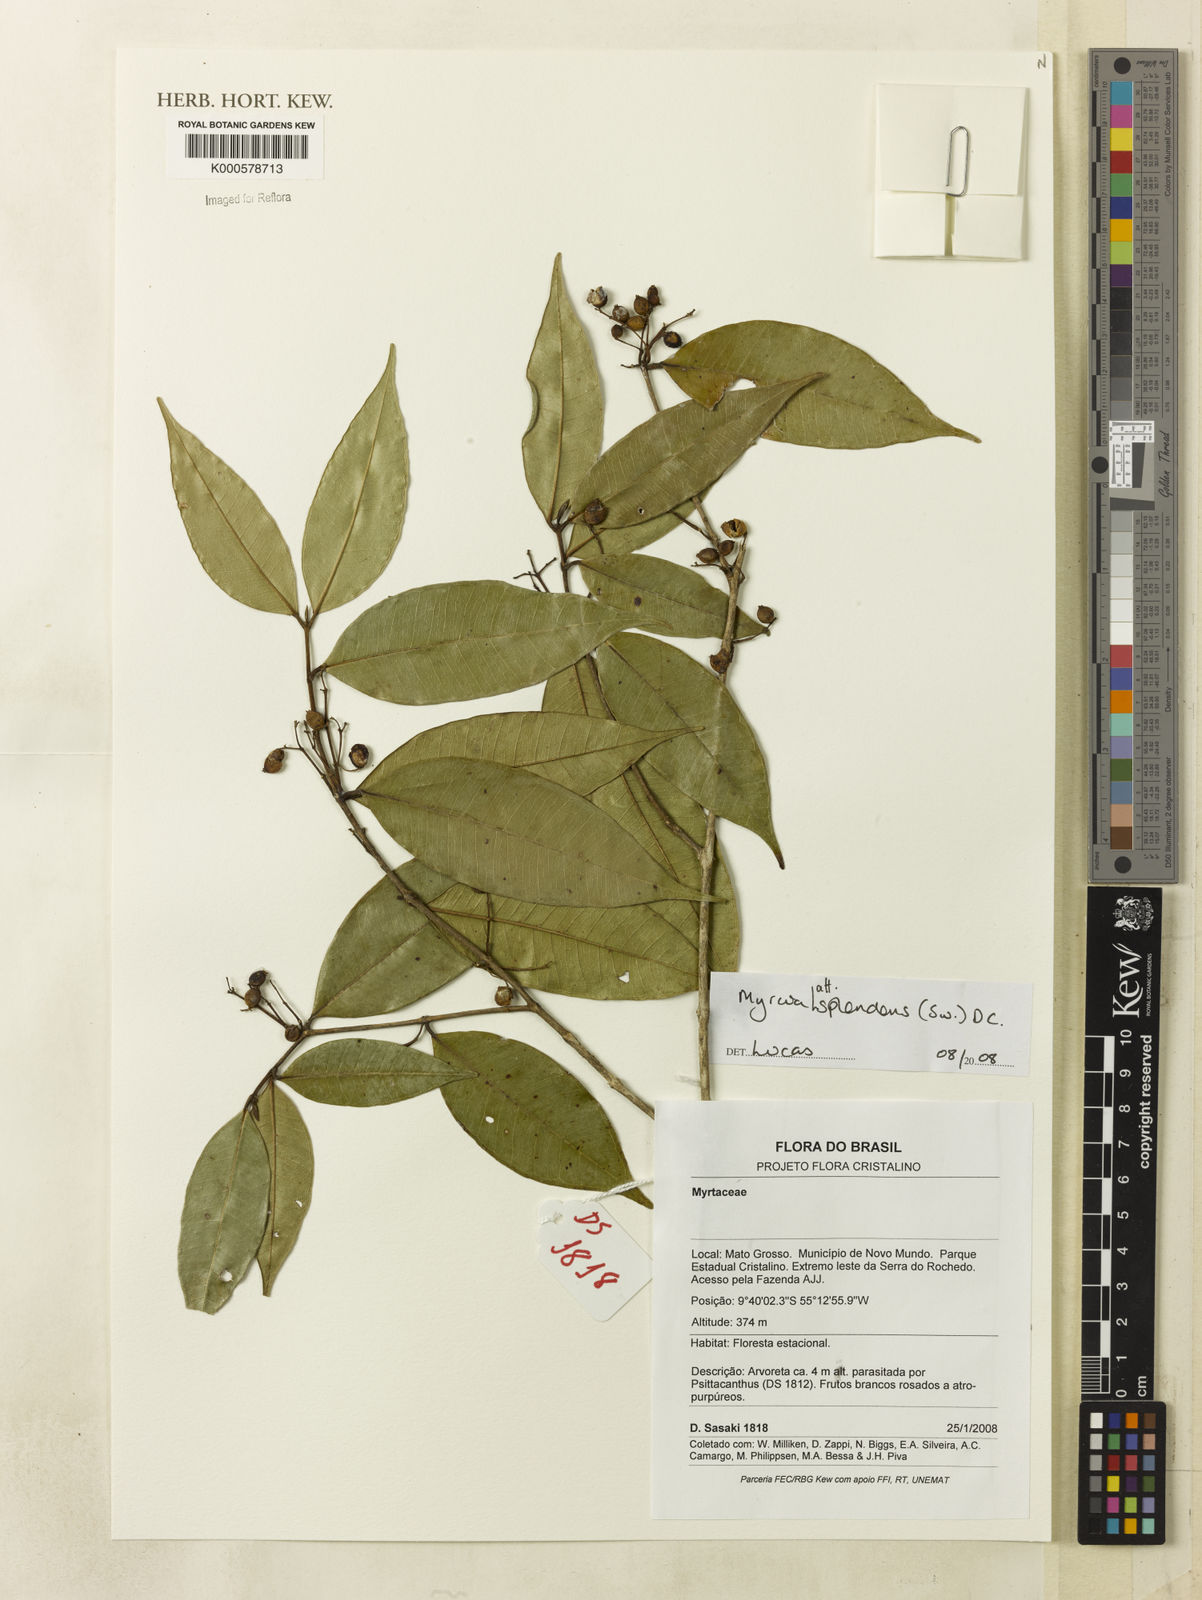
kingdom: Plantae
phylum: Tracheophyta
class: Magnoliopsida
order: Myrtales
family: Myrtaceae
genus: Myrcia
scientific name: Myrcia splendens
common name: Surinam cherry
